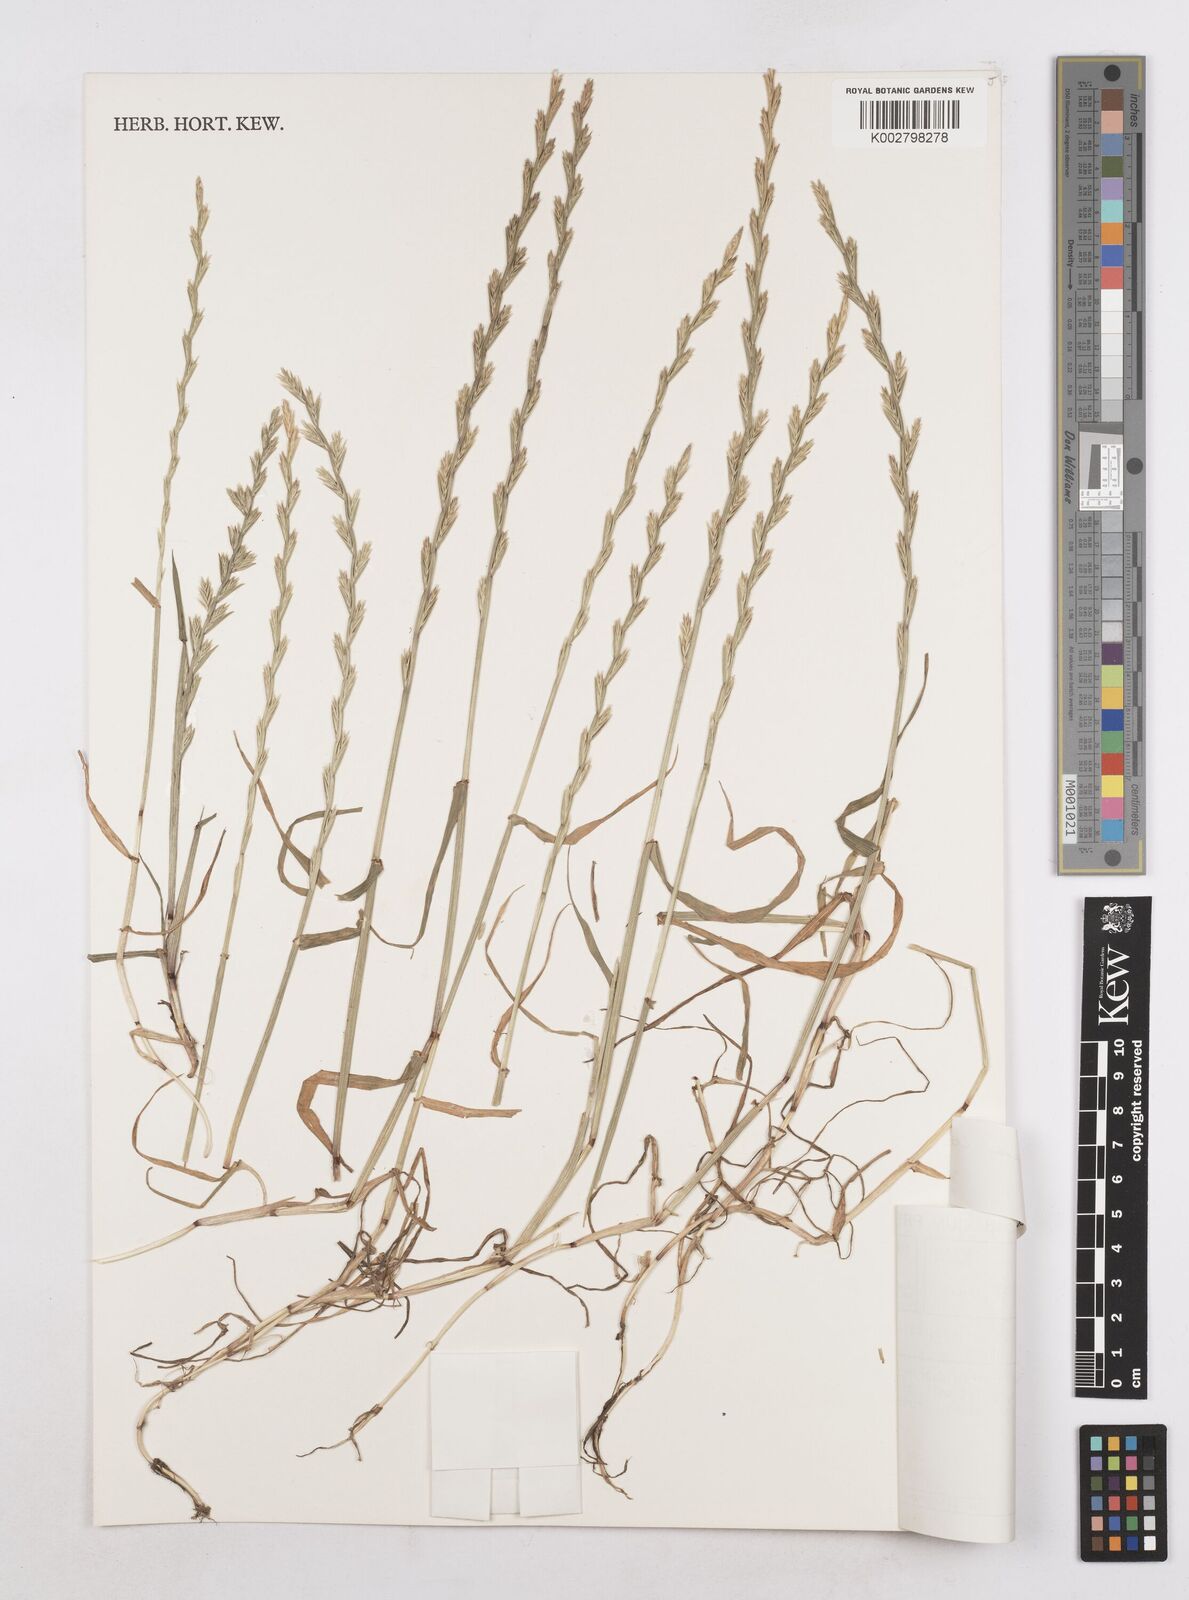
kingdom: Plantae
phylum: Tracheophyta
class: Liliopsida
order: Poales
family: Poaceae
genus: Lolium
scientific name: Lolium multiflorum
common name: Annual ryegrass
